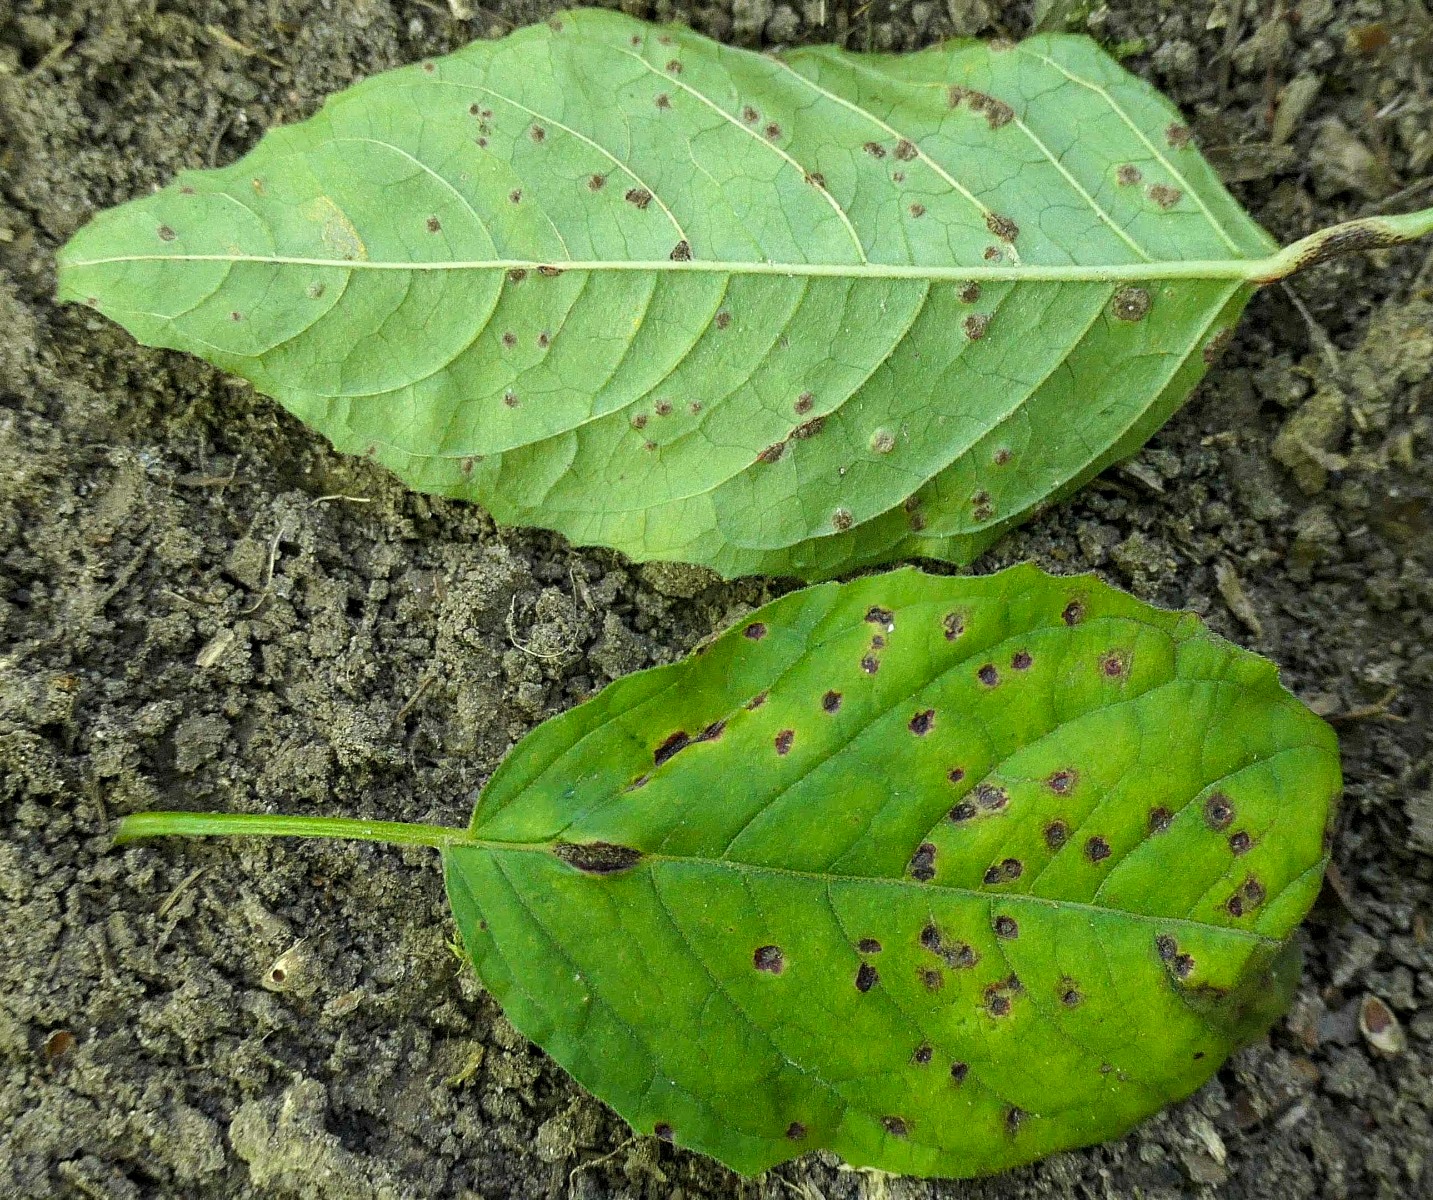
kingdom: Fungi
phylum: Basidiomycota
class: Pucciniomycetes
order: Pucciniales
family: Pucciniaceae
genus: Puccinia
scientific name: Puccinia circaeae
